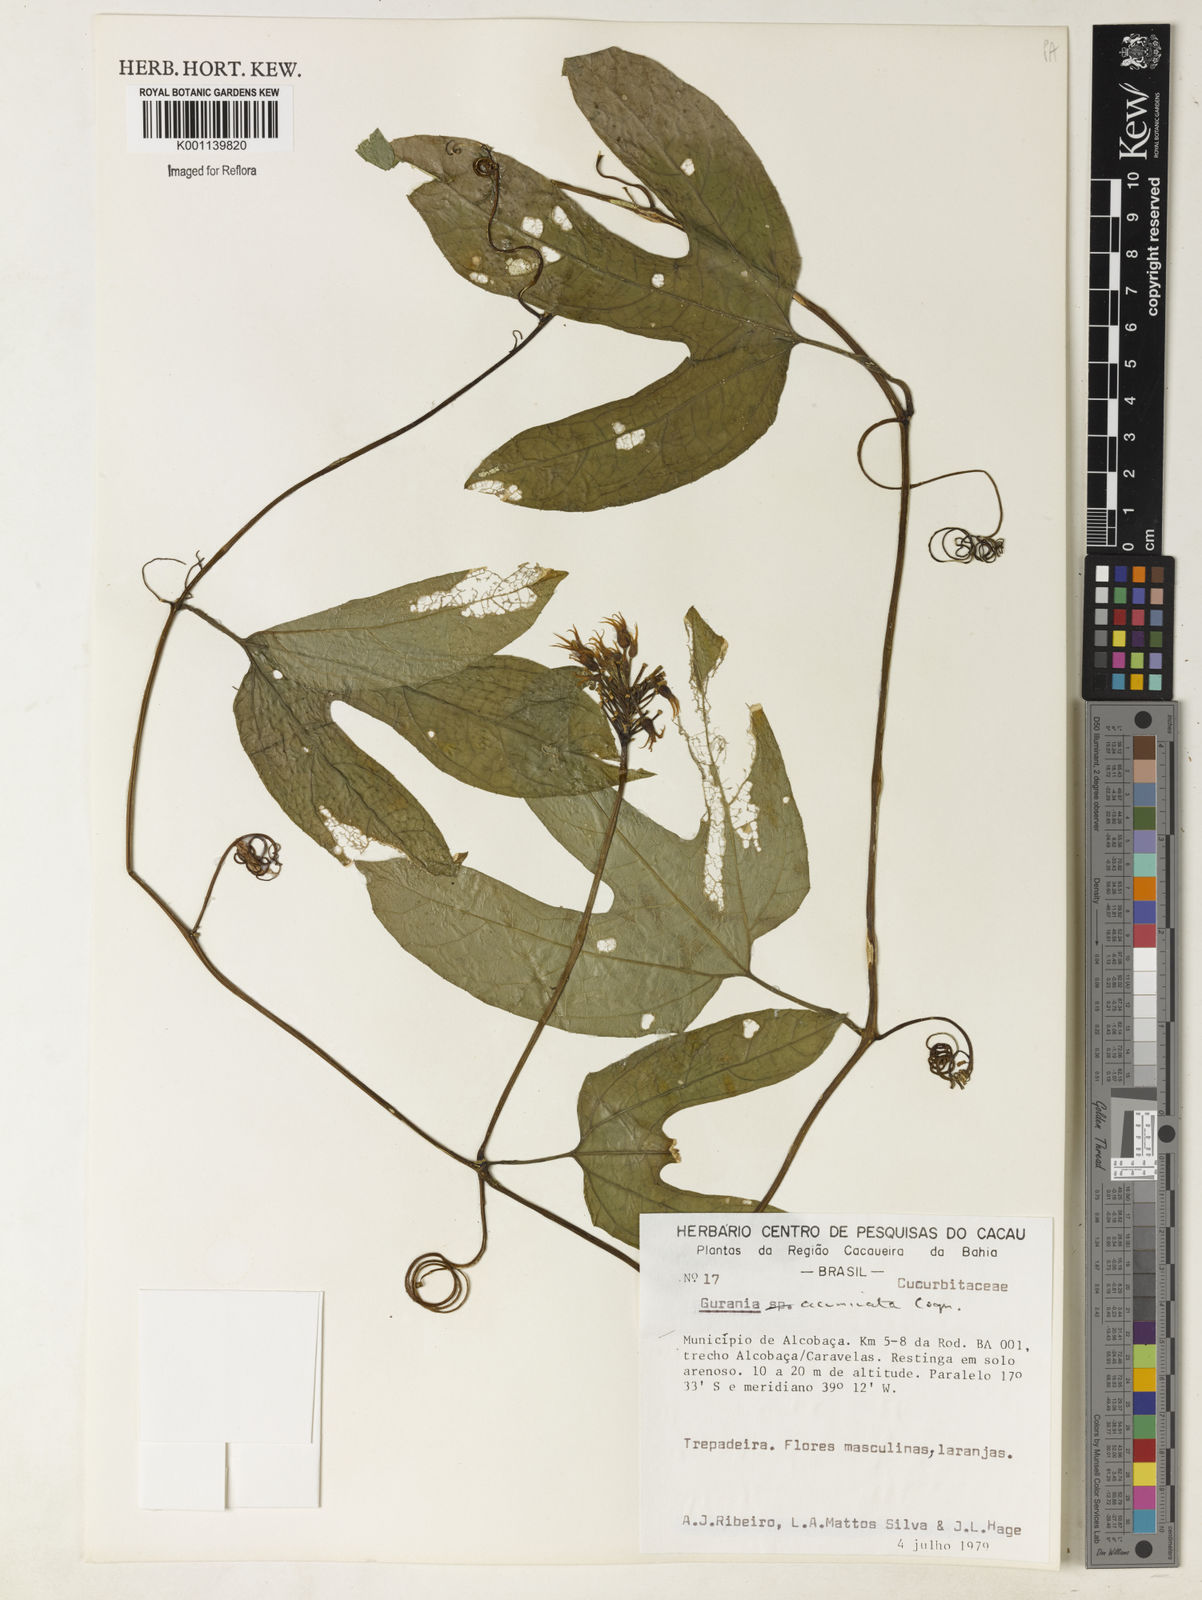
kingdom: Plantae
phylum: Tracheophyta
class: Magnoliopsida
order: Cucurbitales
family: Cucurbitaceae
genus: Gurania
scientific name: Gurania acuminata
